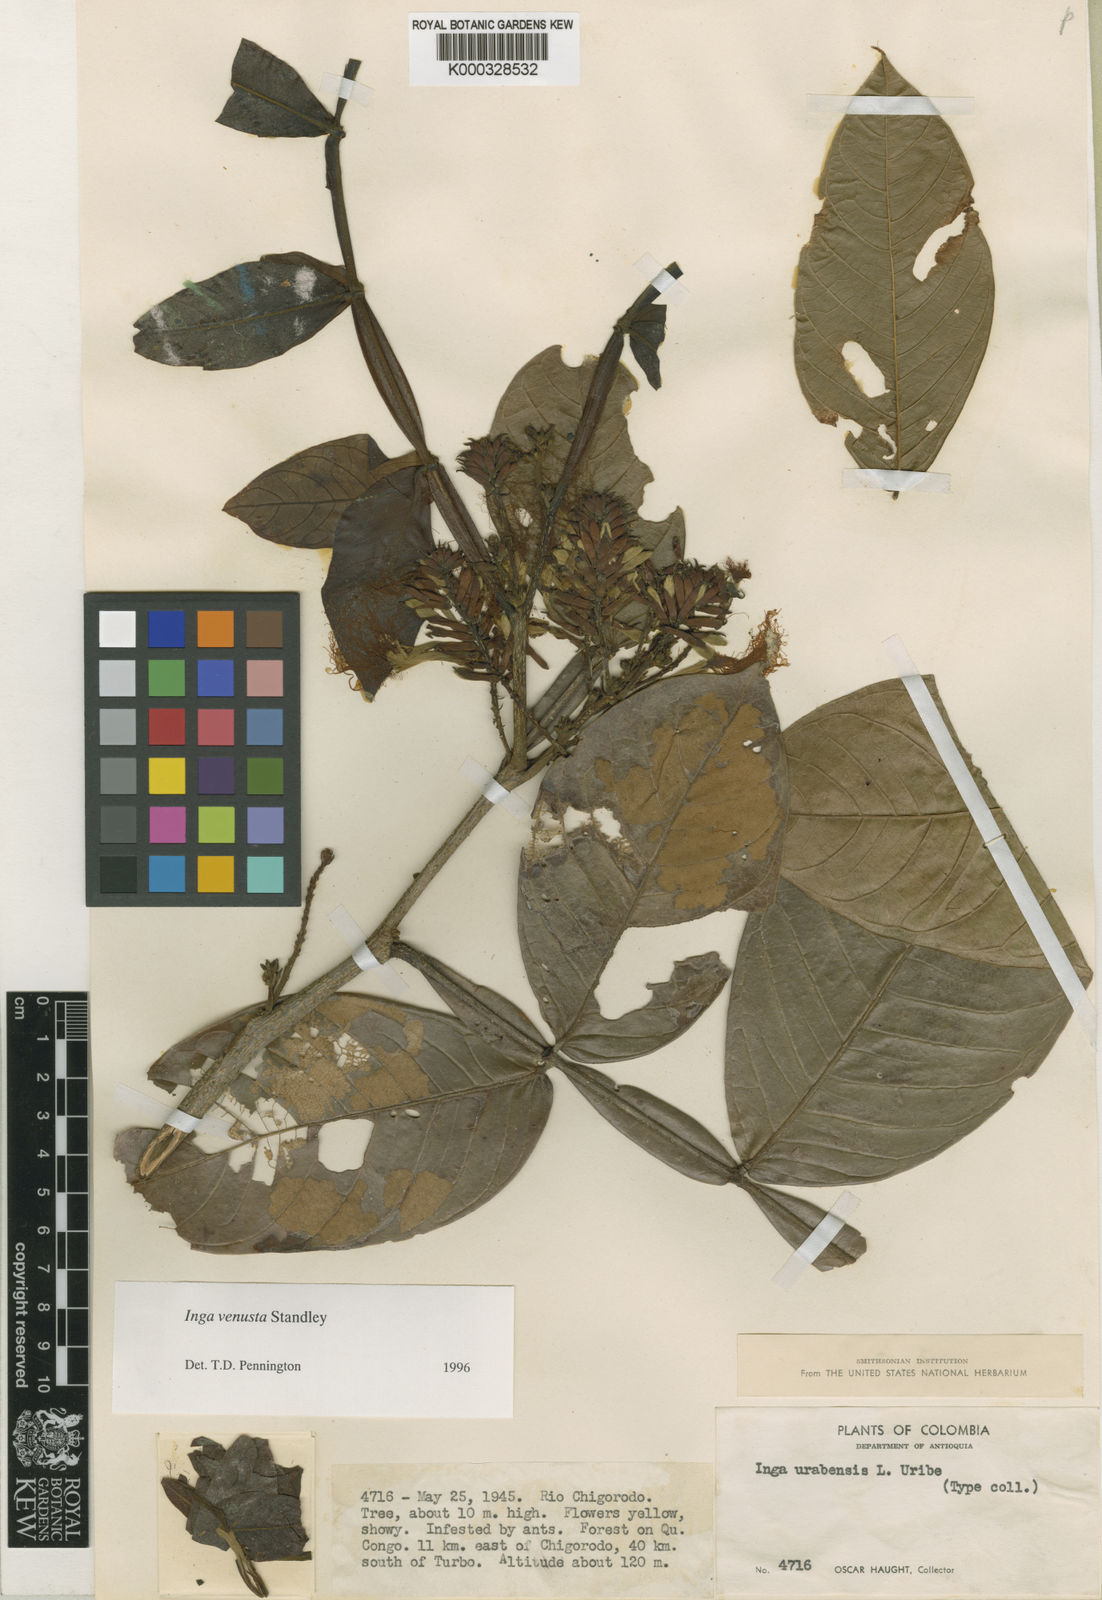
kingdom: Plantae
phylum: Tracheophyta
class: Magnoliopsida
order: Fabales
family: Fabaceae
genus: Inga
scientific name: Inga venusta
